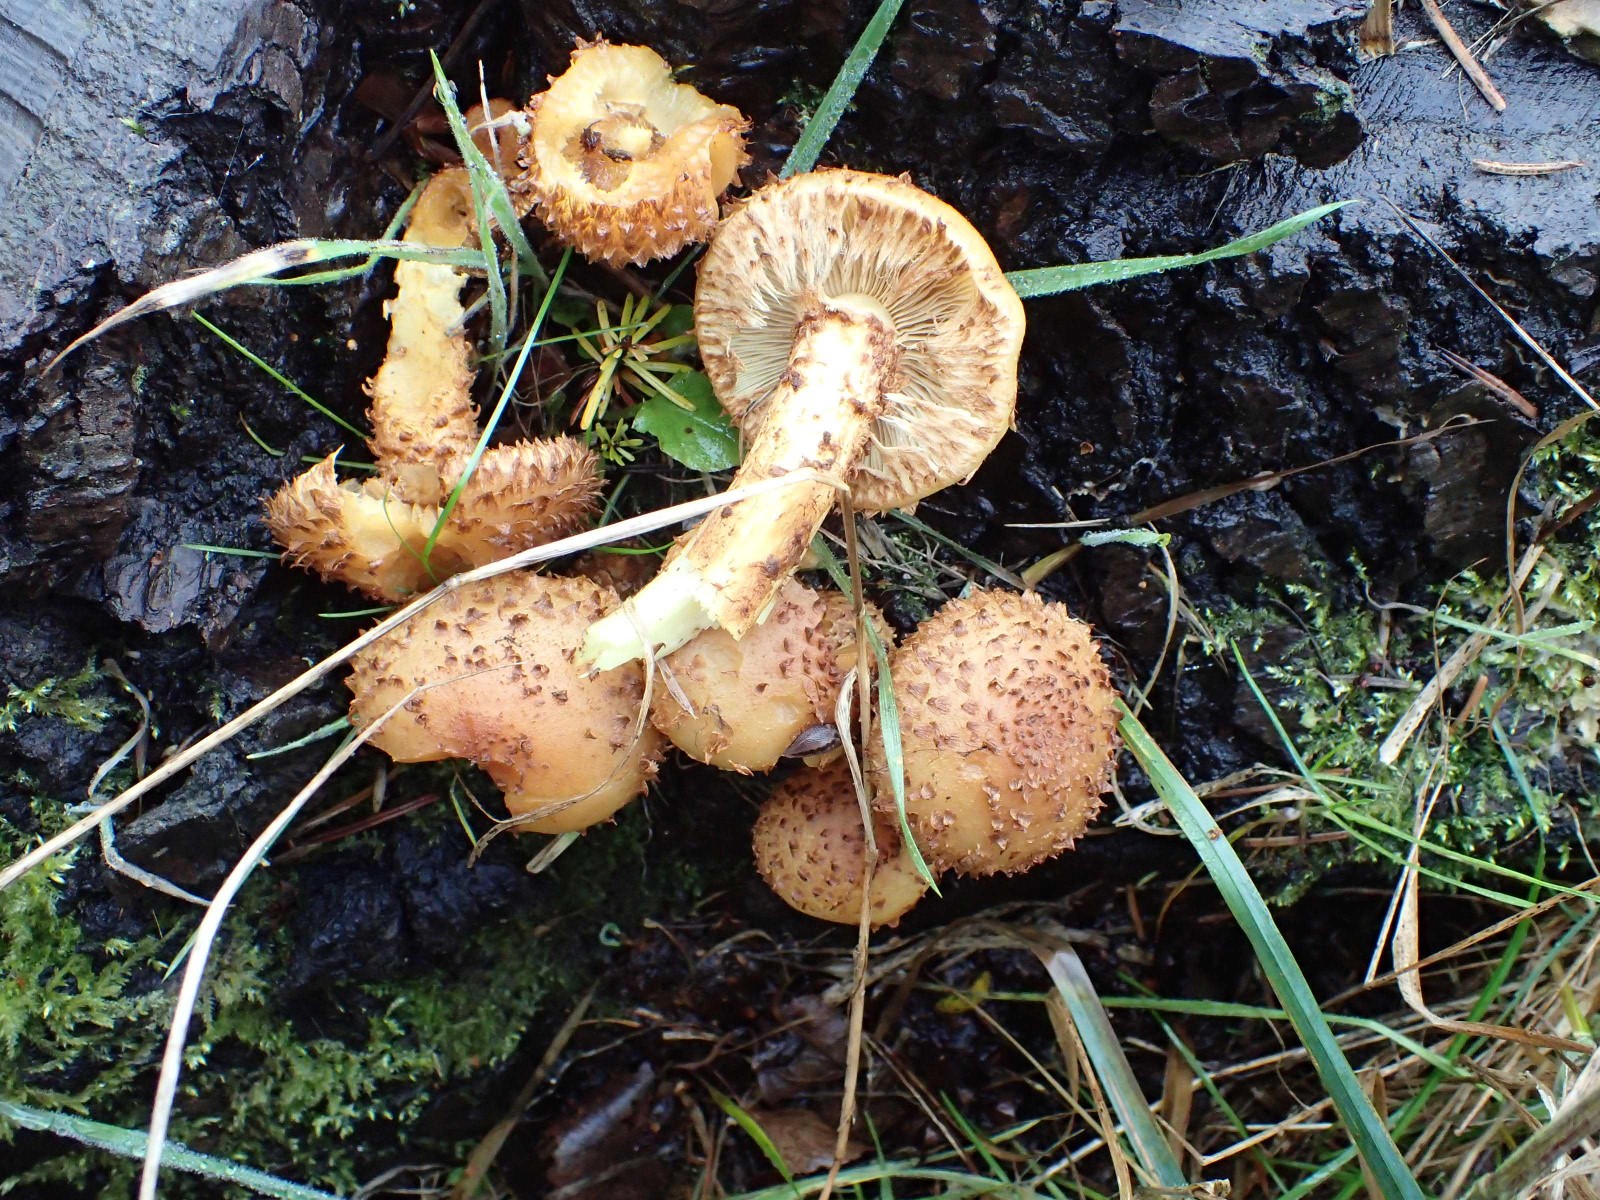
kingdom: Fungi
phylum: Basidiomycota
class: Agaricomycetes
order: Agaricales
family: Strophariaceae
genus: Pholiota
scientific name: Pholiota flammans
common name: flamme-skælhat
